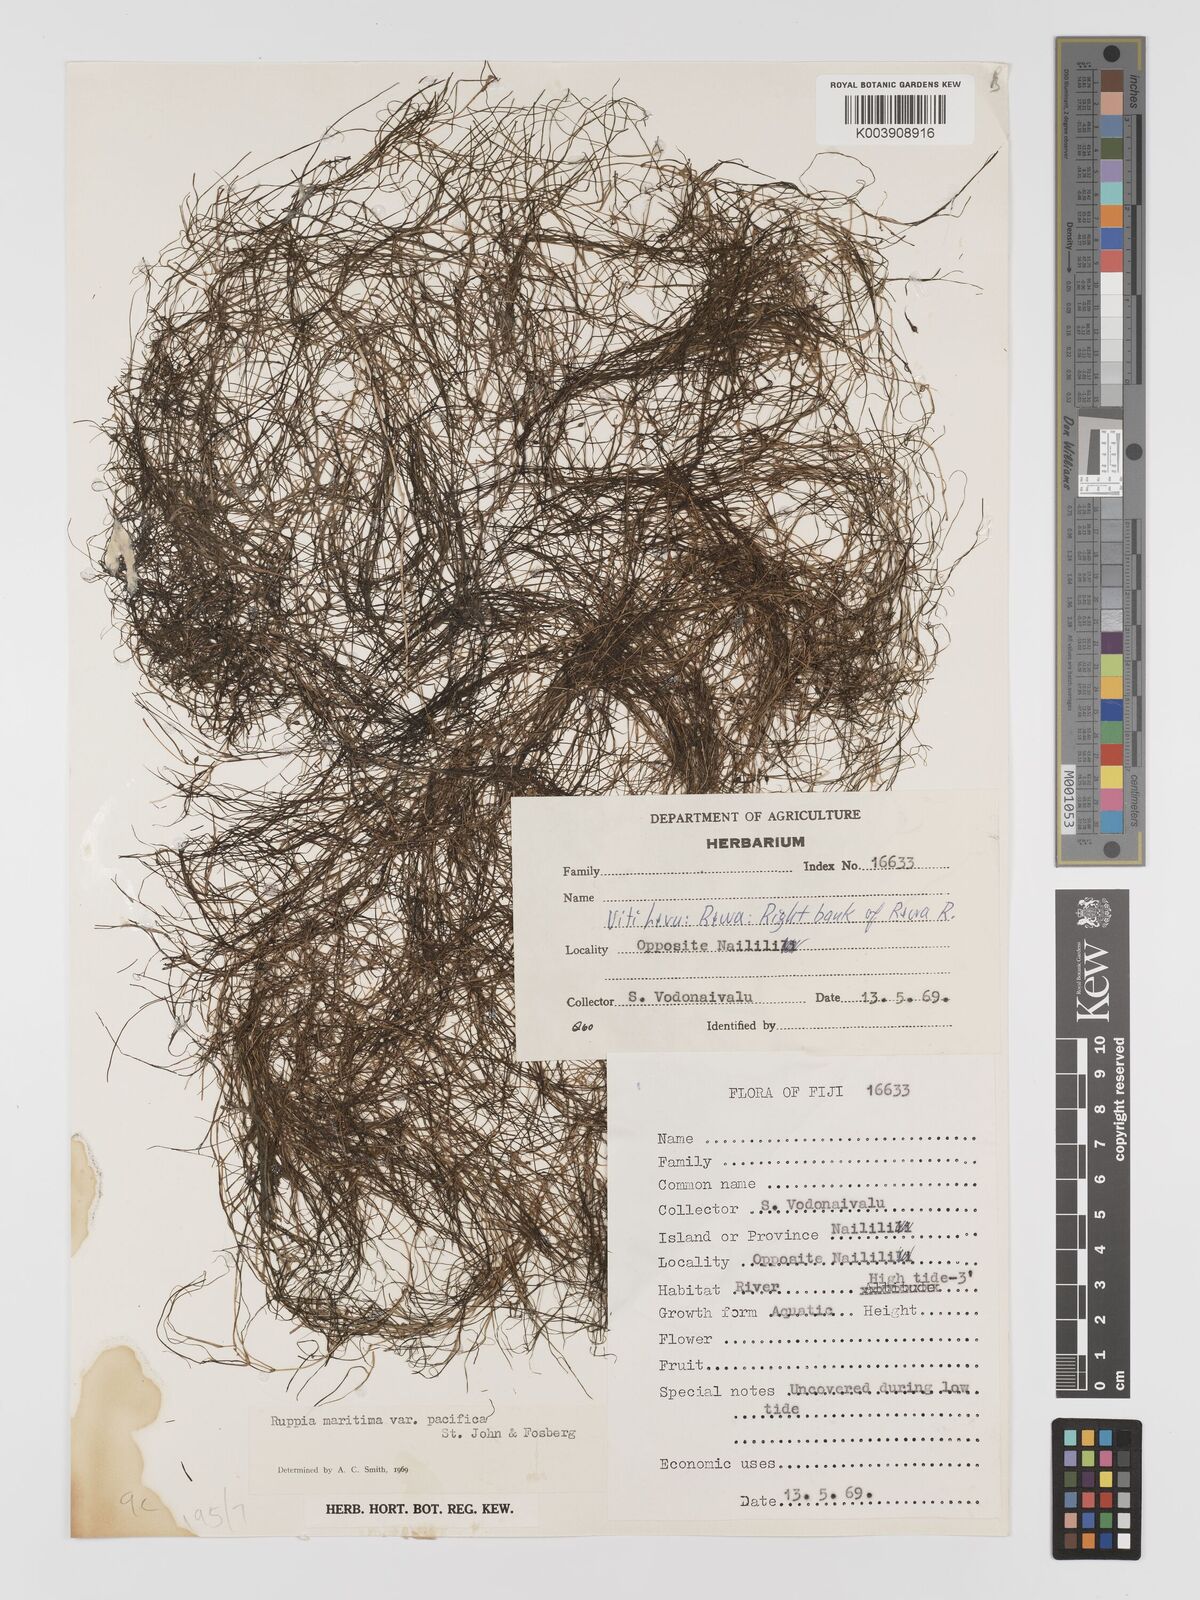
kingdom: Plantae
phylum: Tracheophyta
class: Liliopsida
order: Alismatales
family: Ruppiaceae
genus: Ruppia
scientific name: Ruppia maritima
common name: Beaked tasselweed
